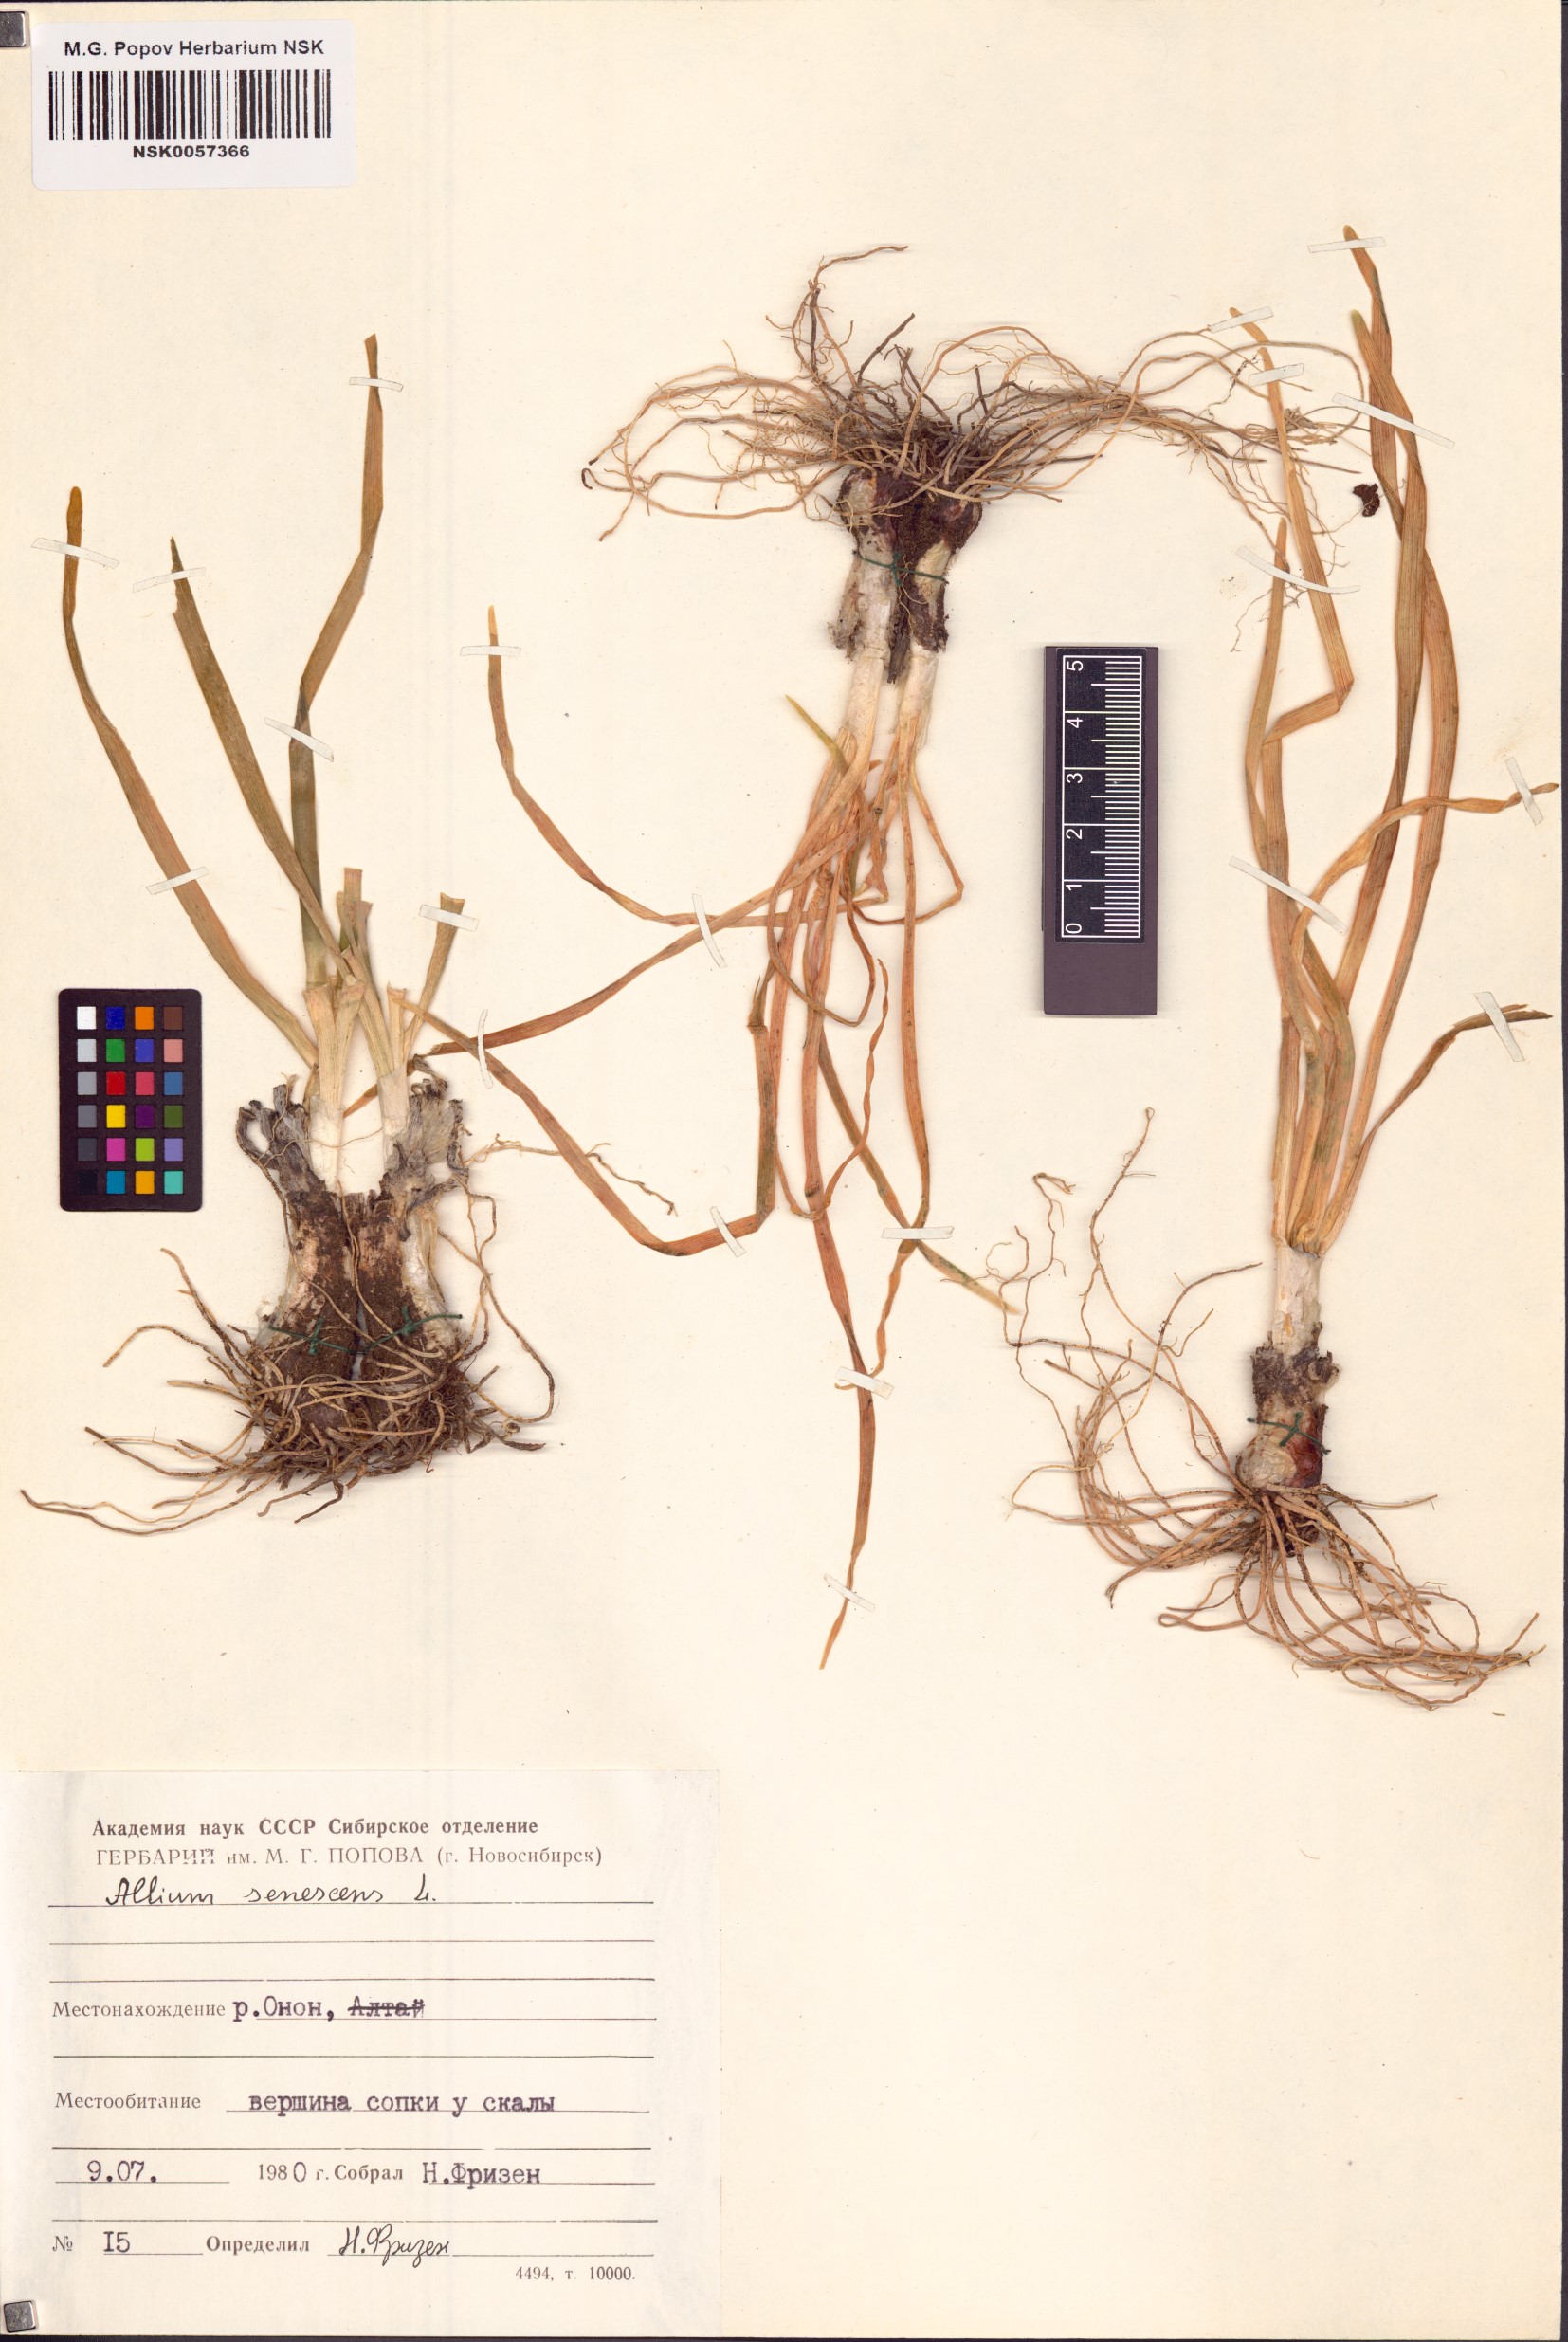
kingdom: Plantae
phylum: Tracheophyta
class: Liliopsida
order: Asparagales
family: Amaryllidaceae
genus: Allium
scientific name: Allium senescens
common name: German garlic
